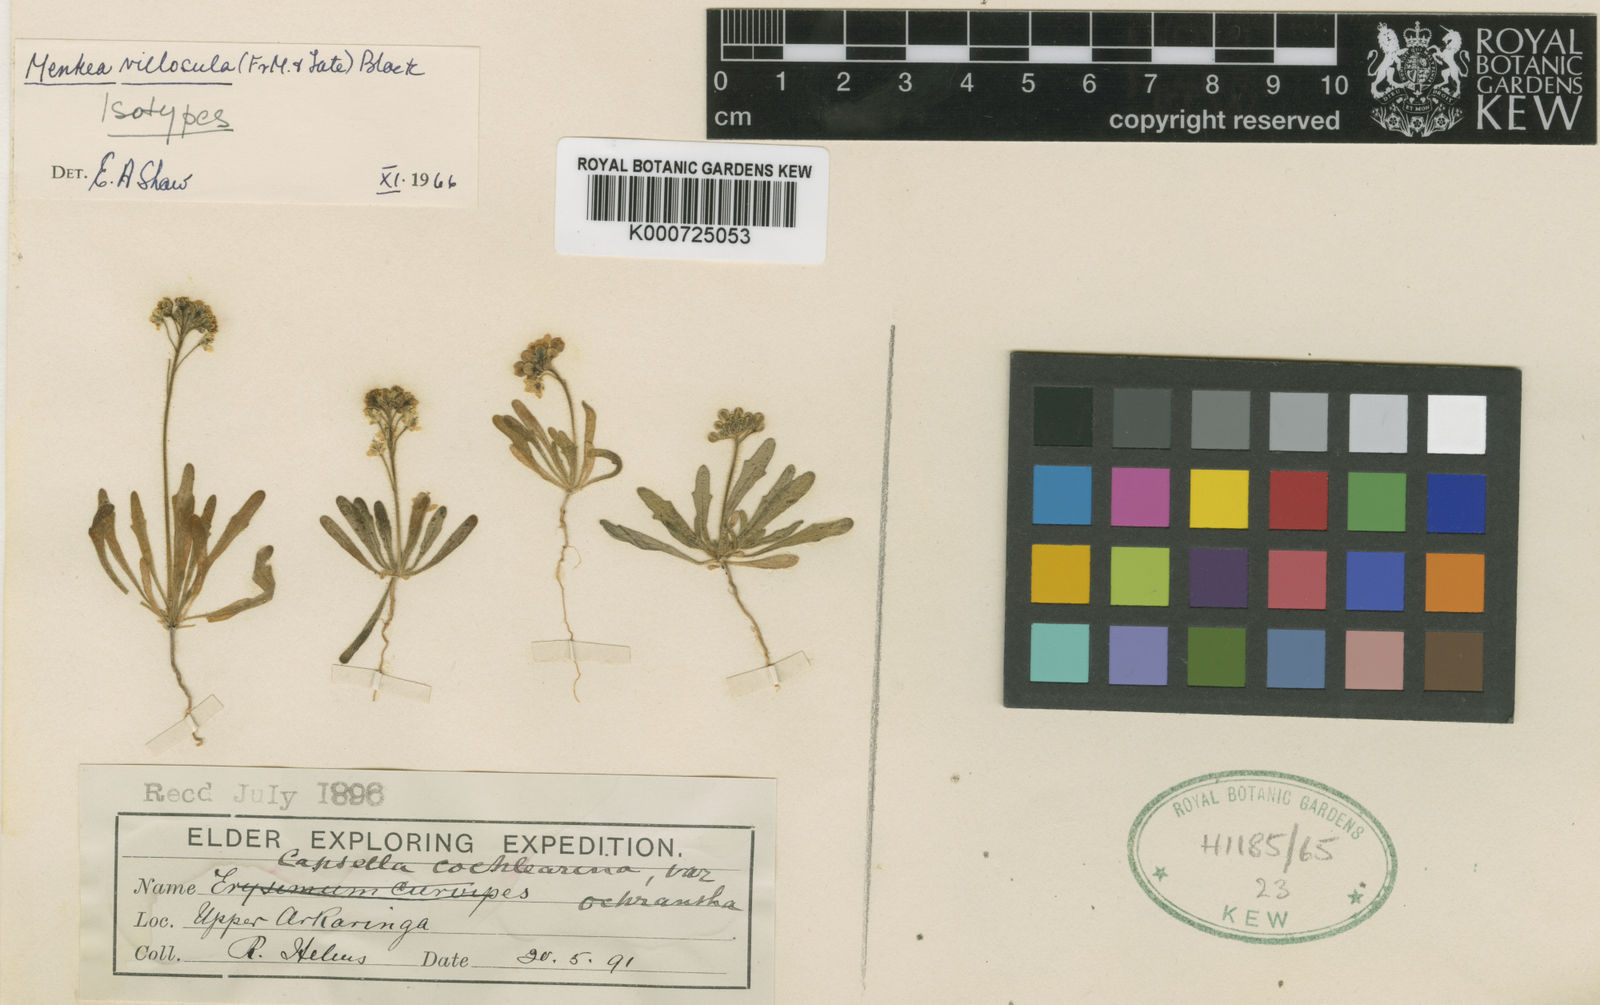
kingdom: Plantae
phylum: Tracheophyta
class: Magnoliopsida
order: Brassicales
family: Brassicaceae
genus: Menkea
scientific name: Menkea villosula
